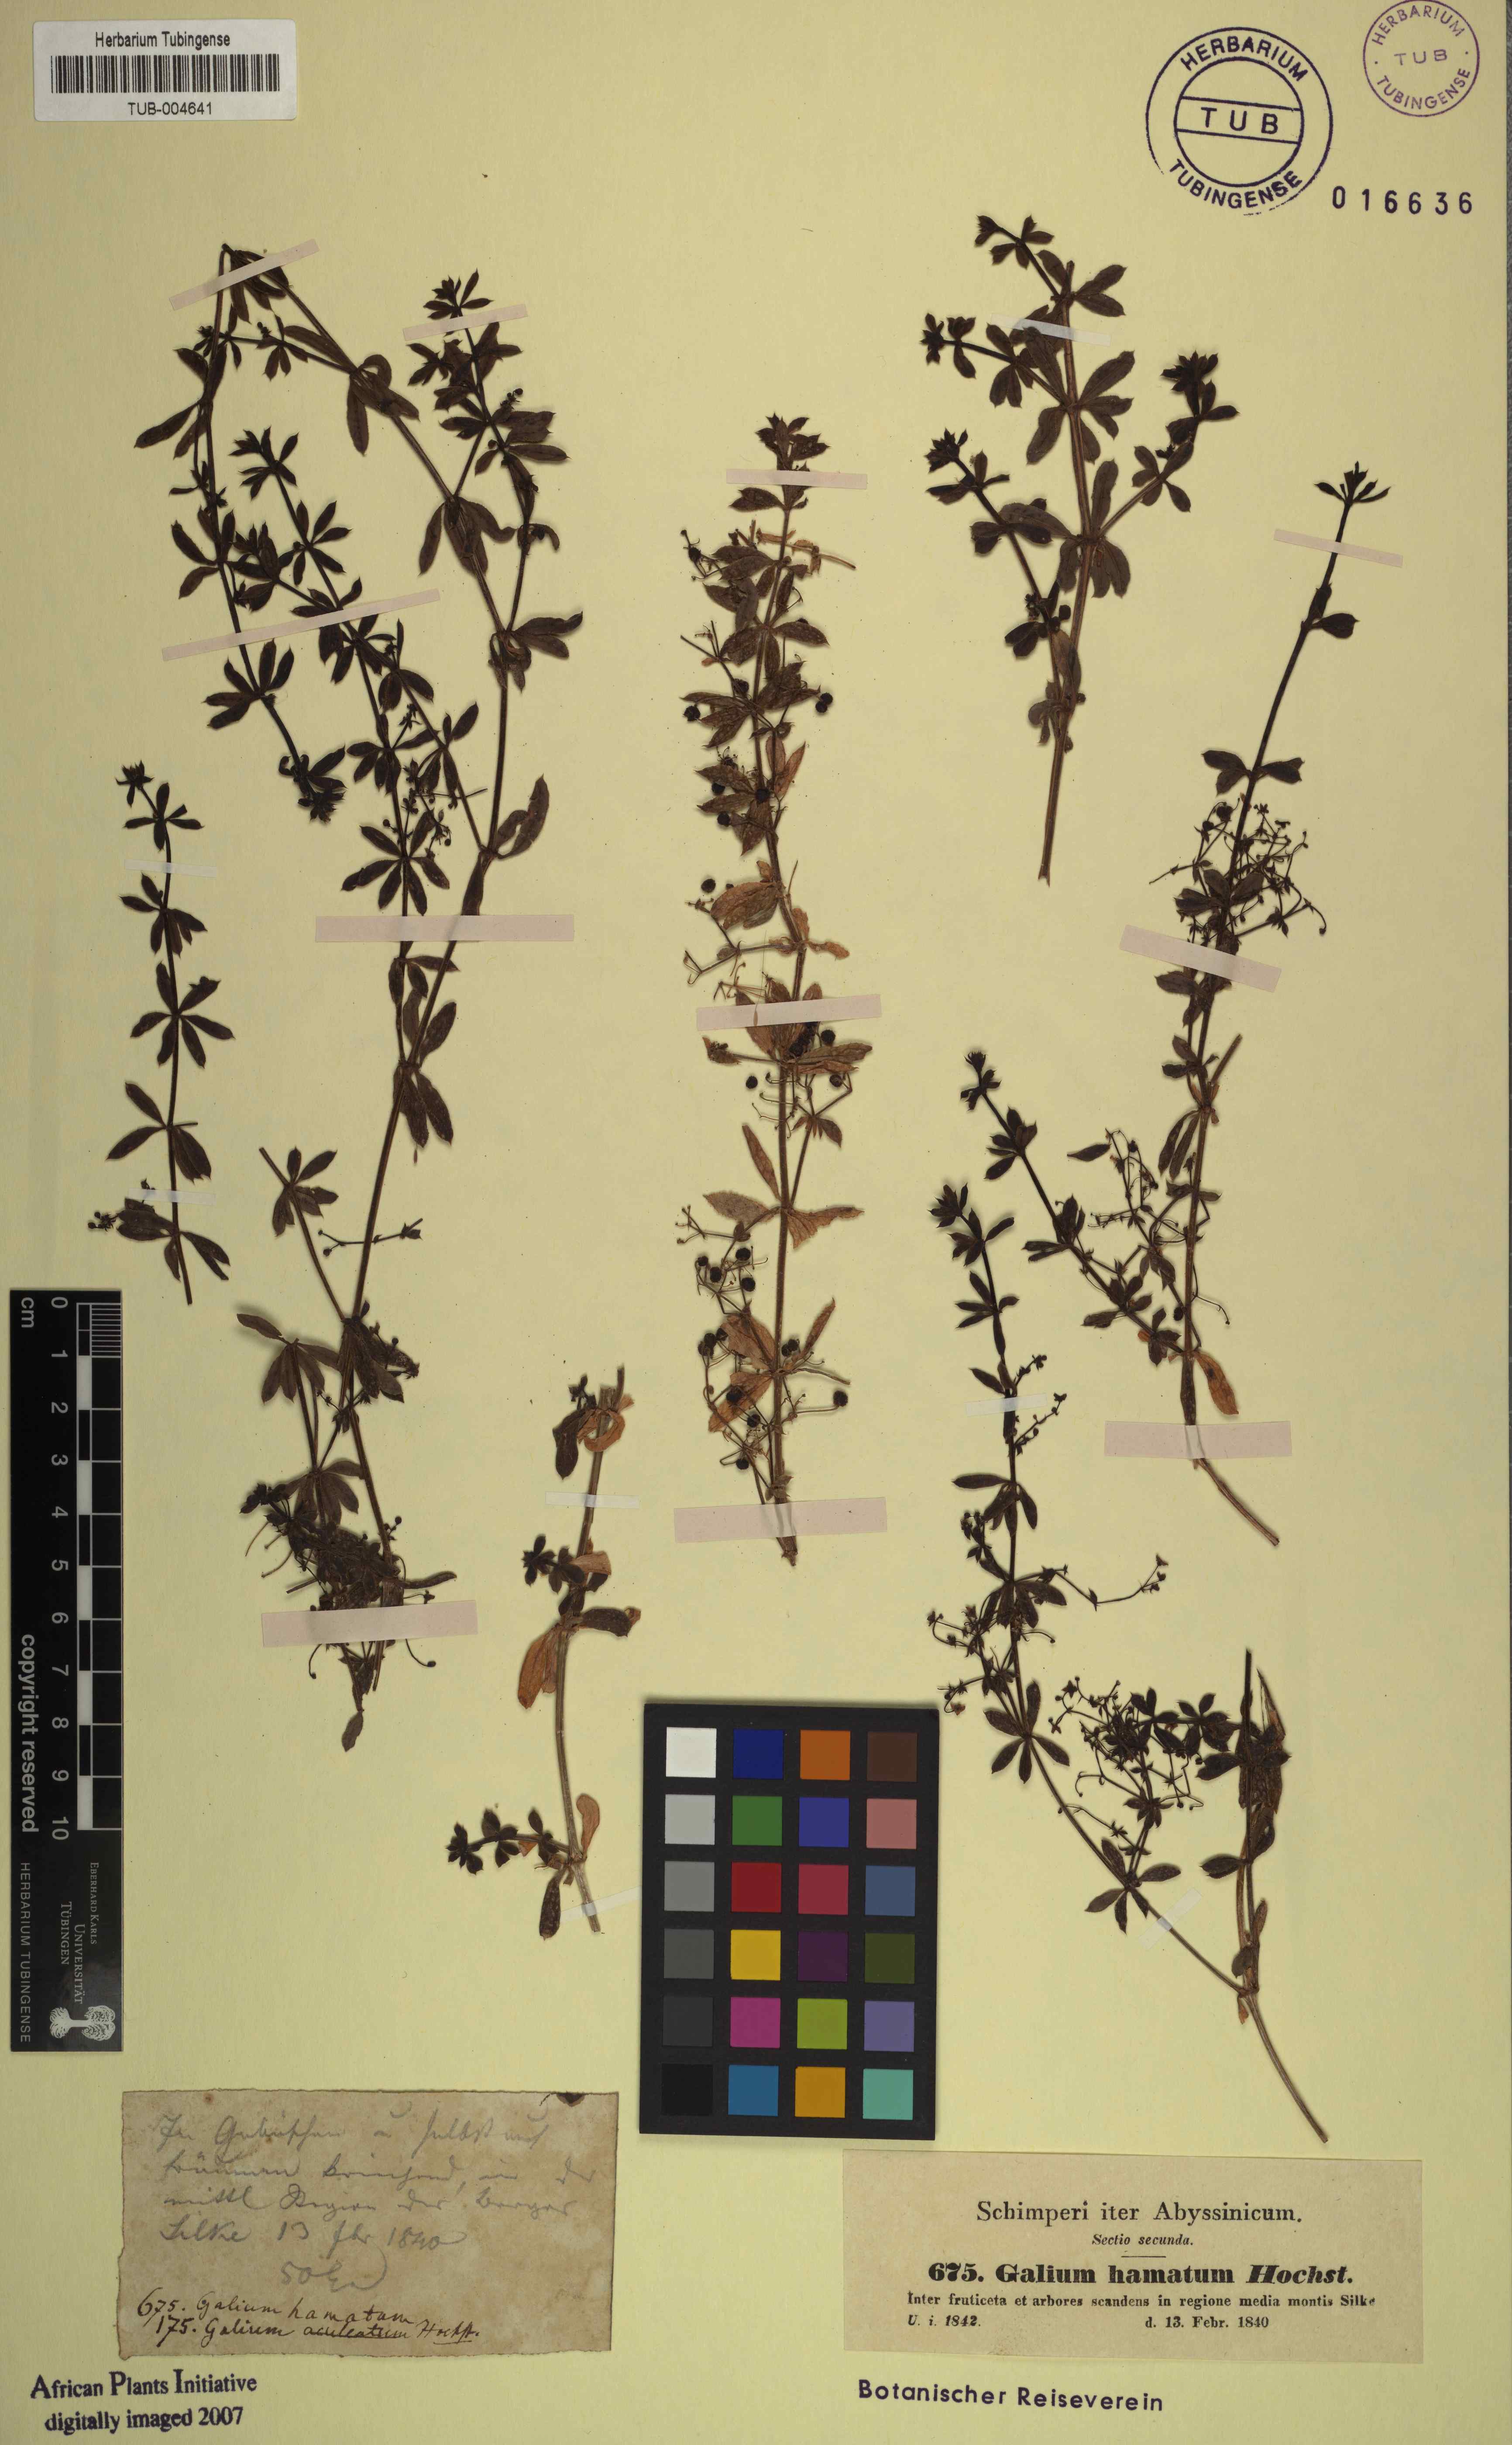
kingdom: Plantae
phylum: Tracheophyta
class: Magnoliopsida
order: Gentianales
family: Rubiaceae
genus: Galium
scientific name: Galium aparinoides
